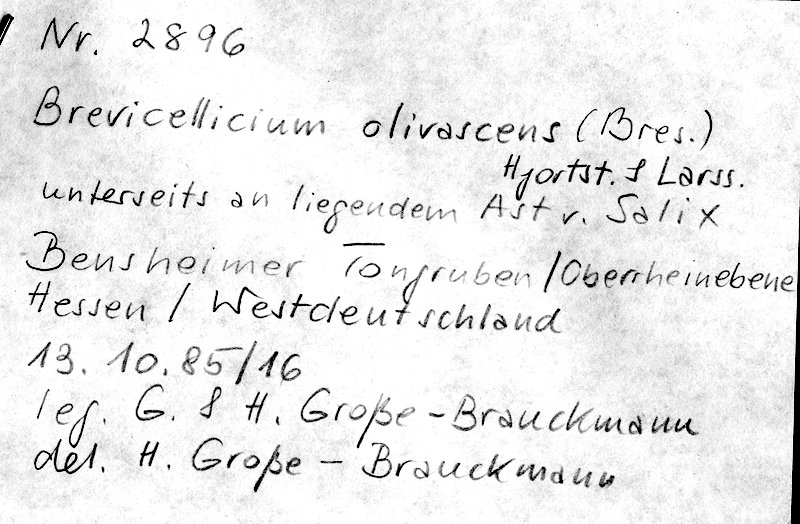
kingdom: Fungi
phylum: Basidiomycota
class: Agaricomycetes
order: Trechisporales
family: Hydnodontaceae
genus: Brevicellicium
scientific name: Brevicellicium olivascens
